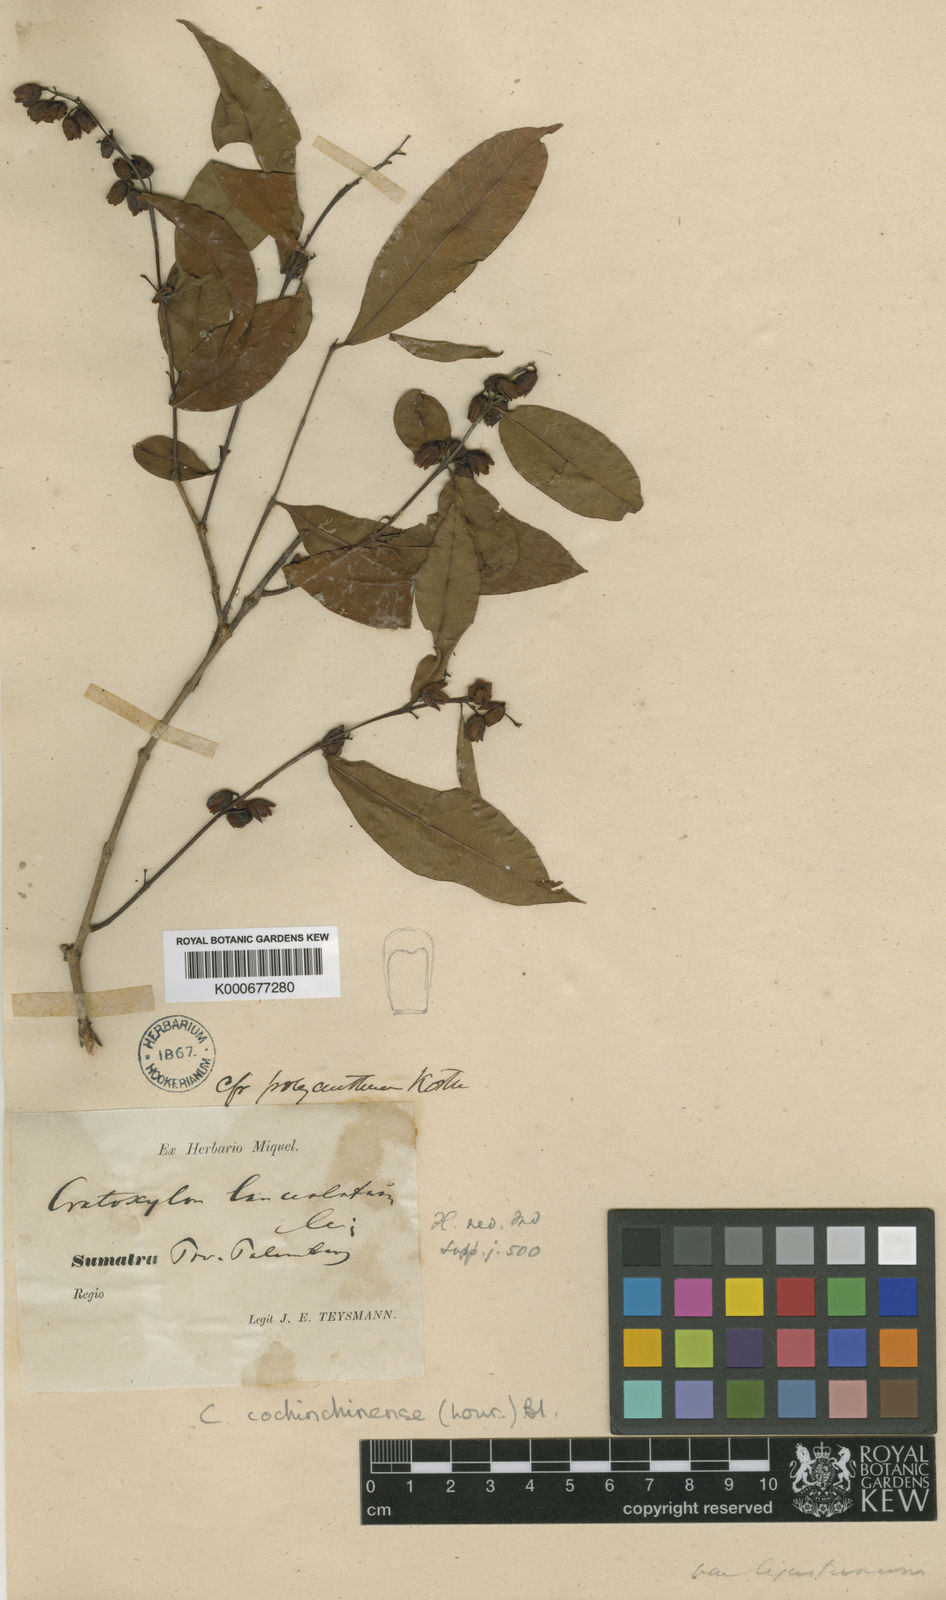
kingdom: Plantae
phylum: Tracheophyta
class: Magnoliopsida
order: Malpighiales
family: Hypericaceae
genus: Cratoxylum
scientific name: Cratoxylum cochinchinense
